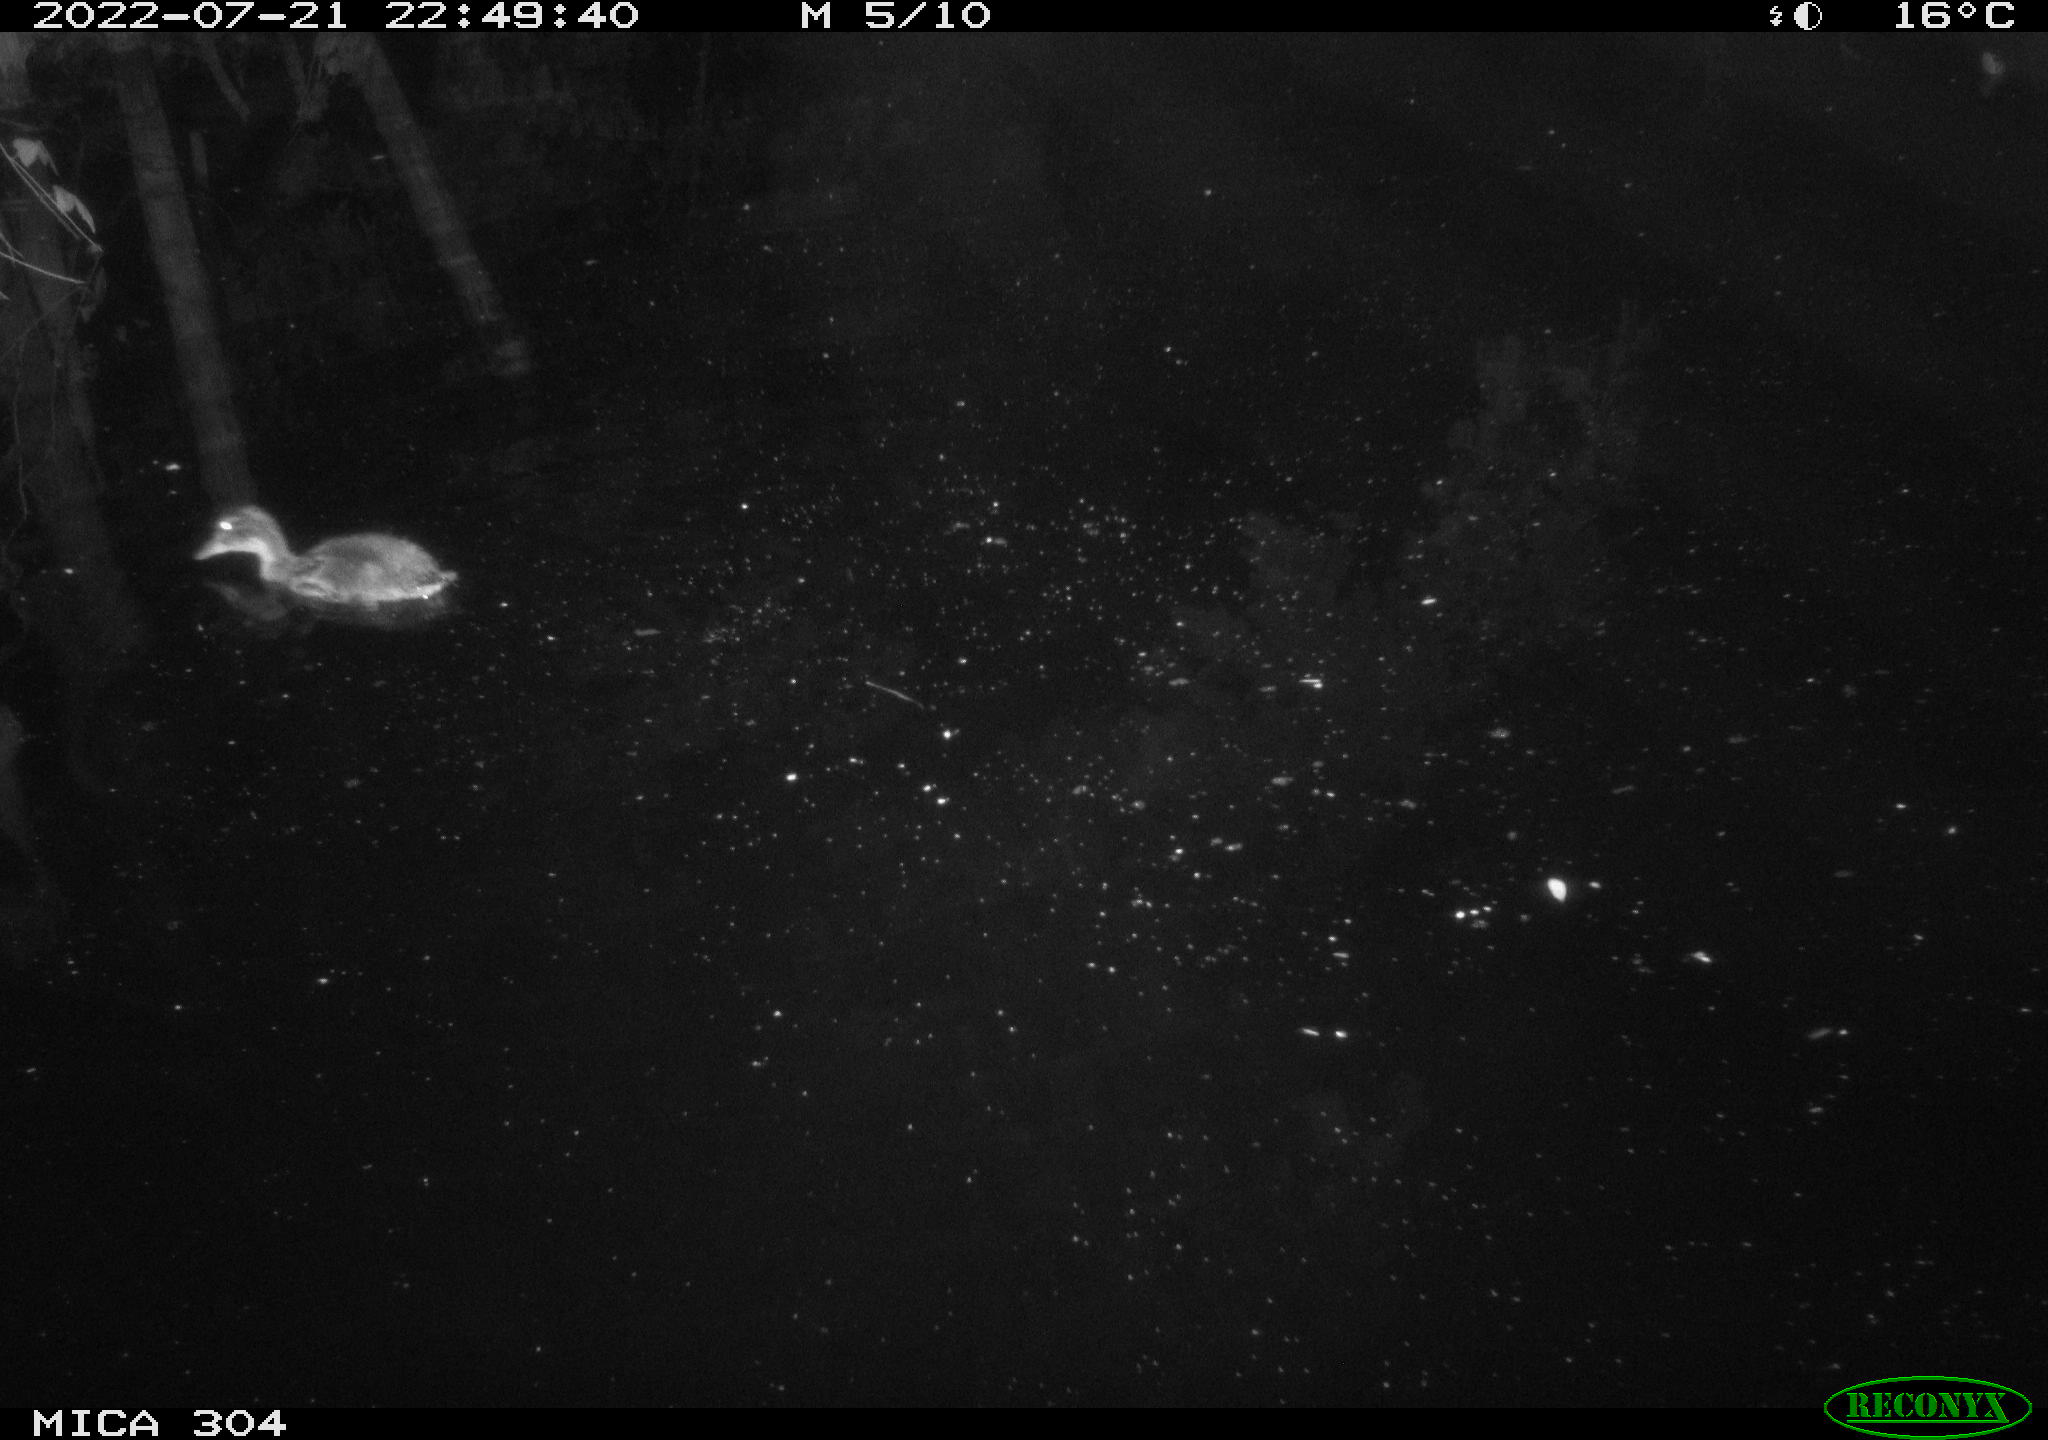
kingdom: Animalia
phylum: Chordata
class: Aves
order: Anseriformes
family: Anatidae
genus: Anas
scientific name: Anas platyrhynchos
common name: Mallard
